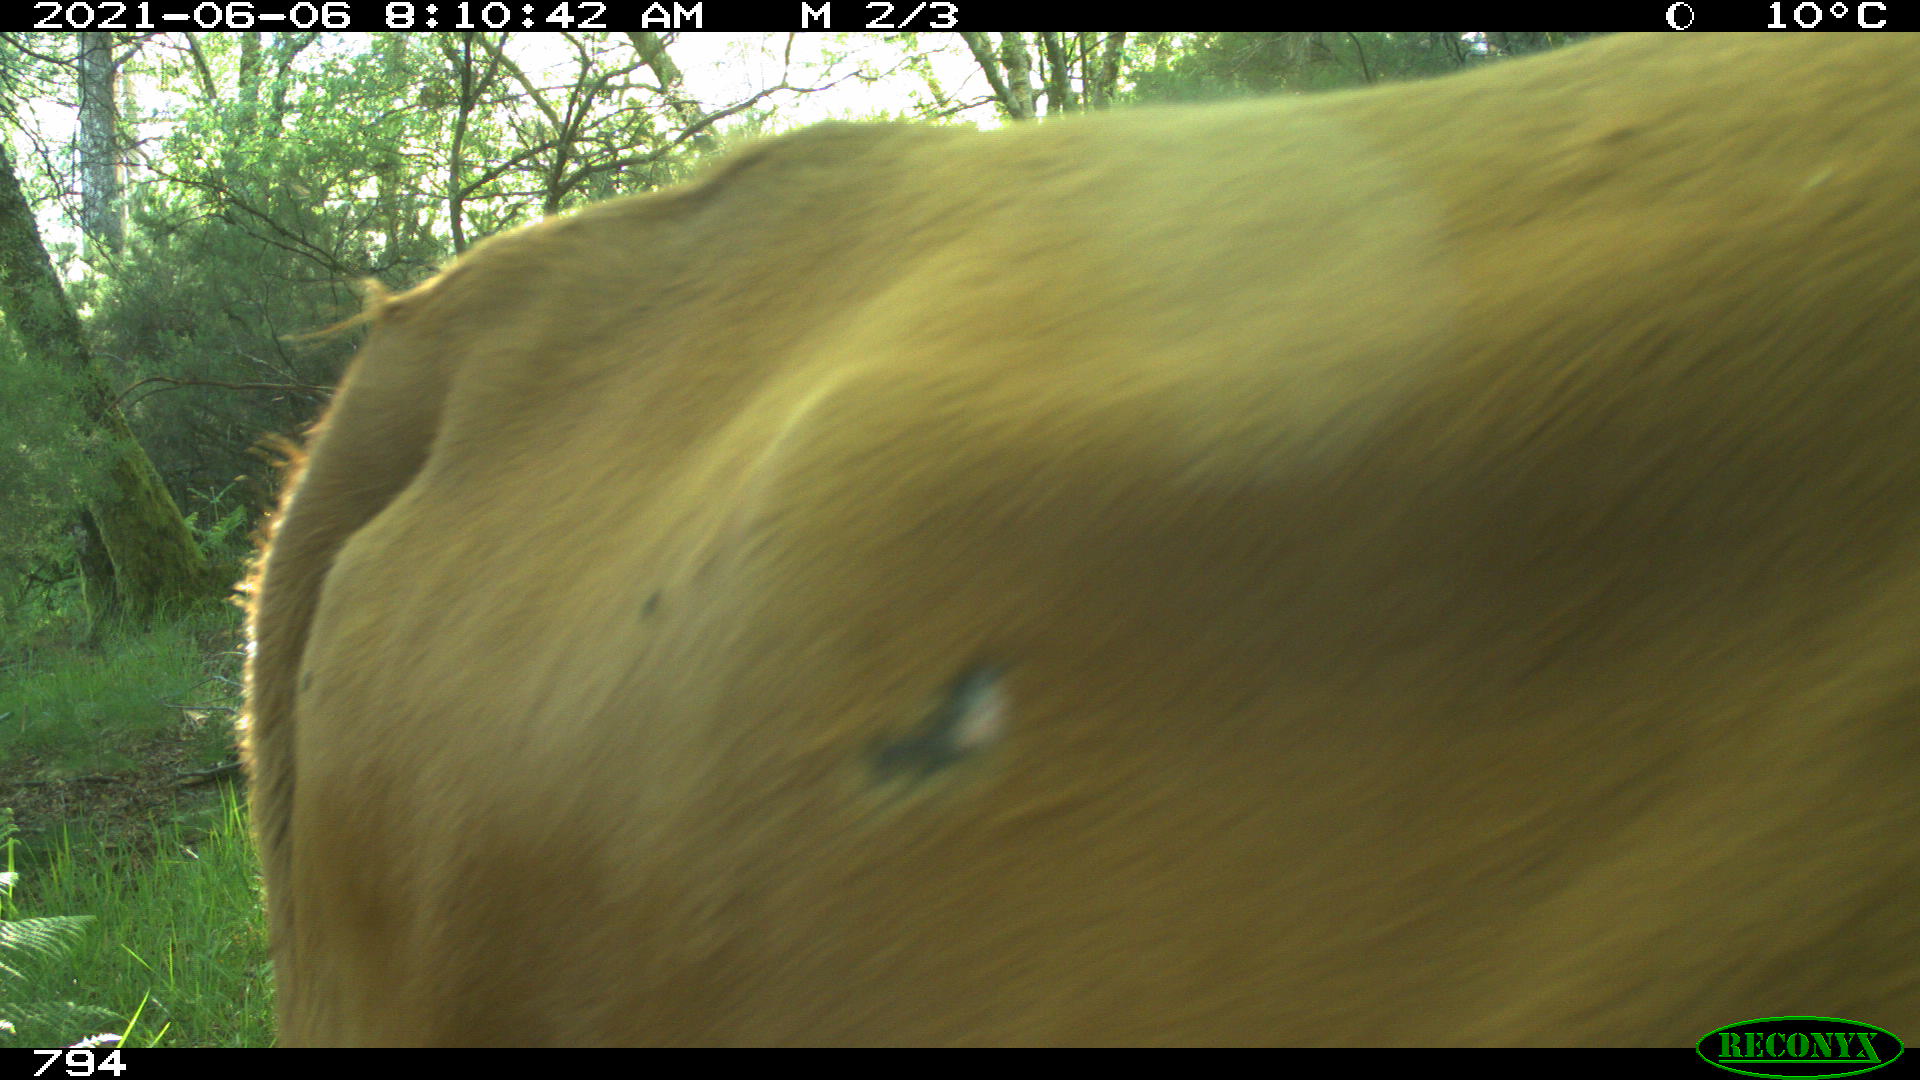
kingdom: Animalia
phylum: Chordata
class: Mammalia
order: Artiodactyla
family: Bovidae
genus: Bos
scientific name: Bos taurus
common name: Domesticated cattle
